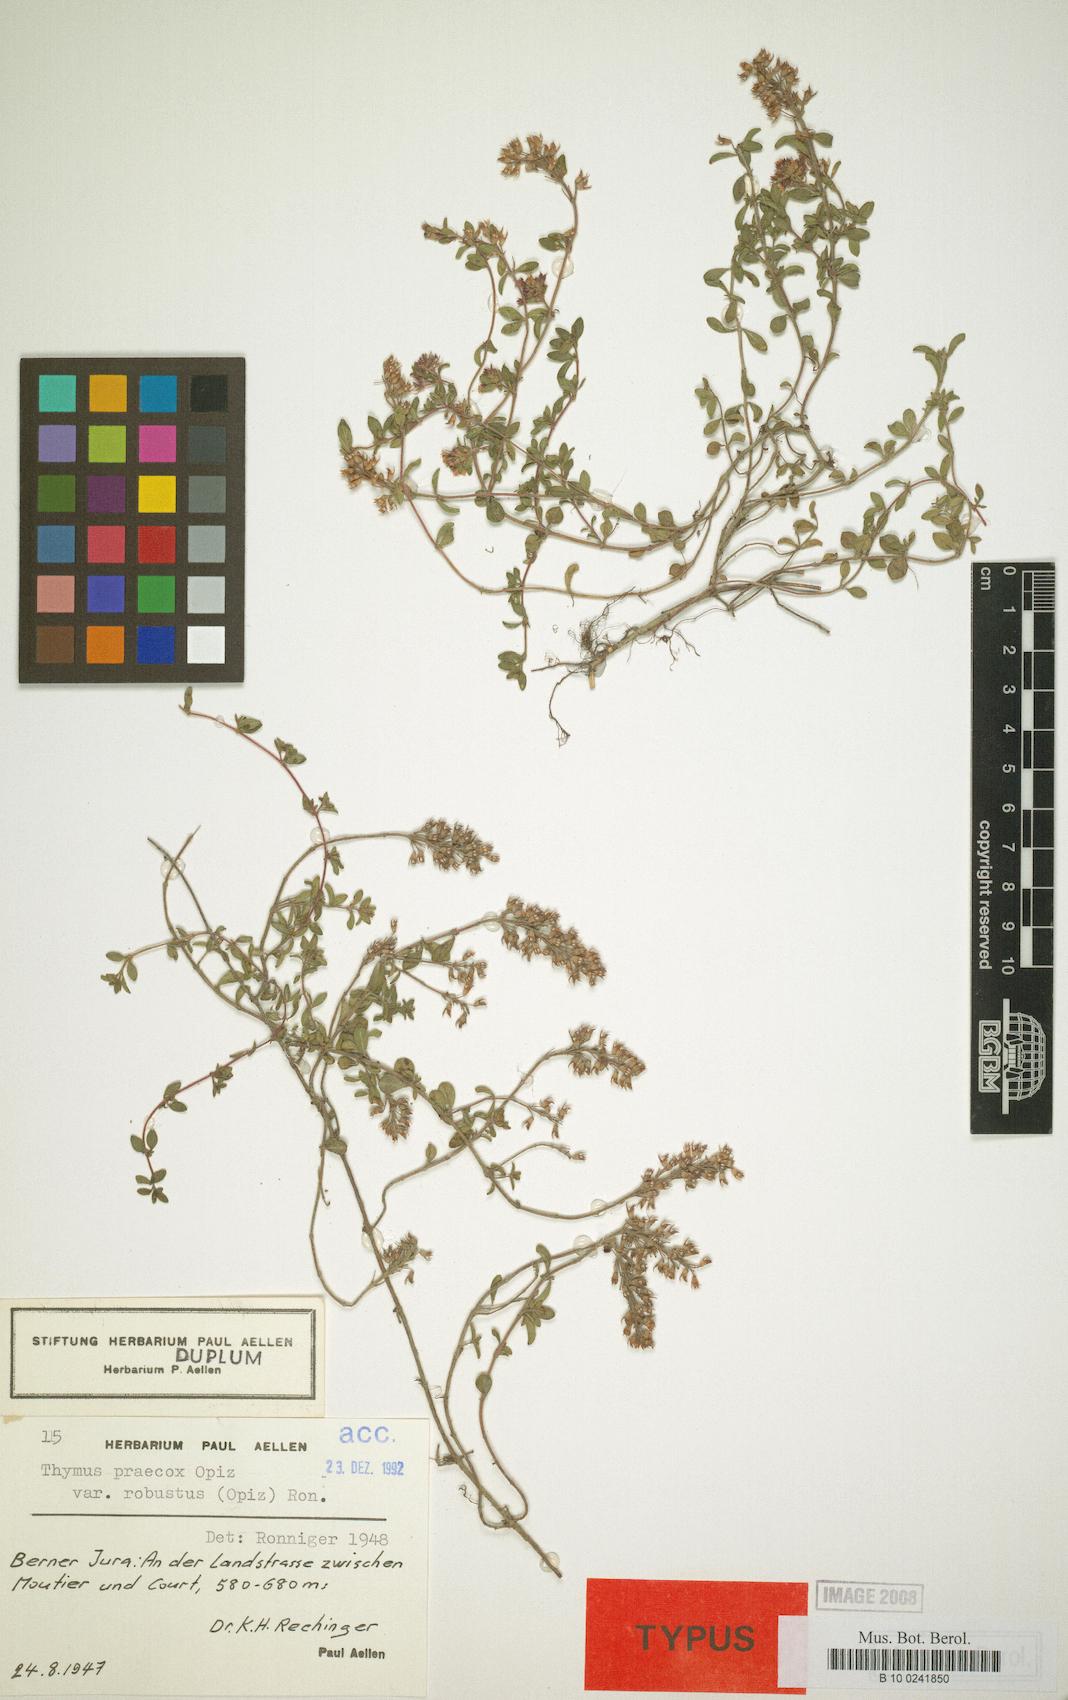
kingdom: Plantae
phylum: Tracheophyta
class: Magnoliopsida
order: Lamiales
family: Lamiaceae
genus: Thymus
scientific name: Thymus praecox
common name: Wild thyme
